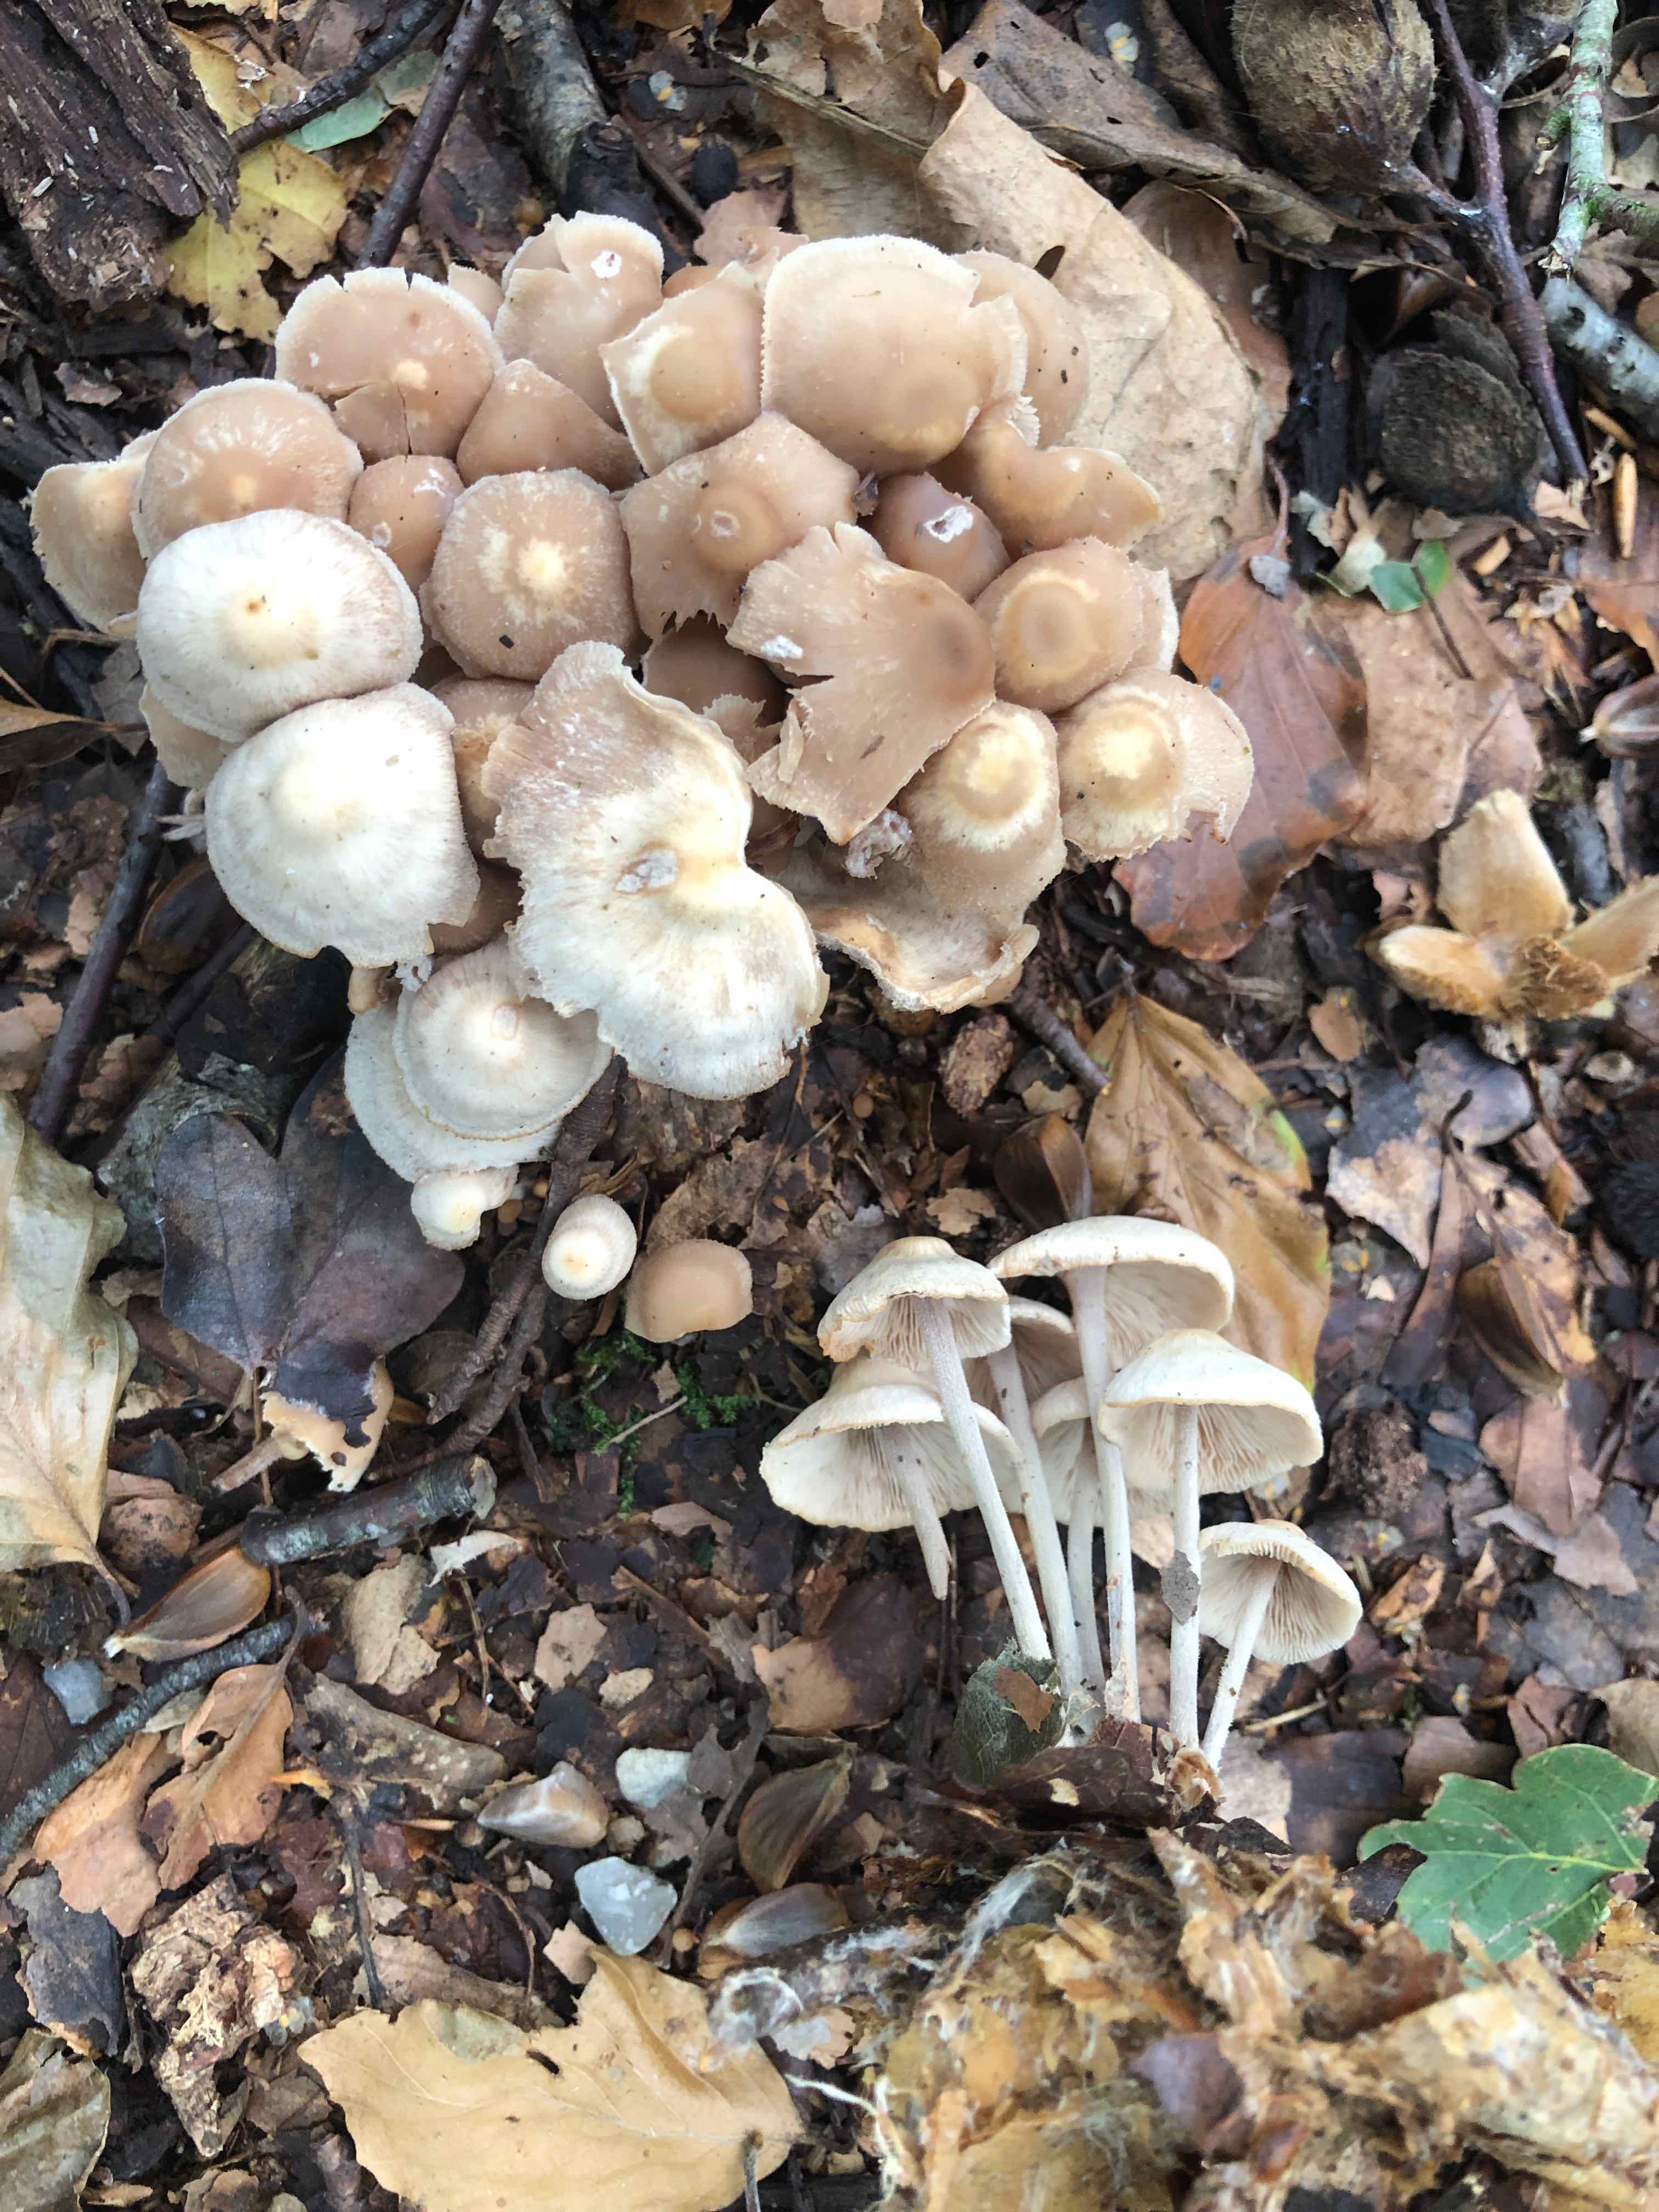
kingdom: Fungi
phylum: Basidiomycota
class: Agaricomycetes
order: Agaricales
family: Omphalotaceae
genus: Collybiopsis
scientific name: Collybiopsis confluens
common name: knippe-fladhat
